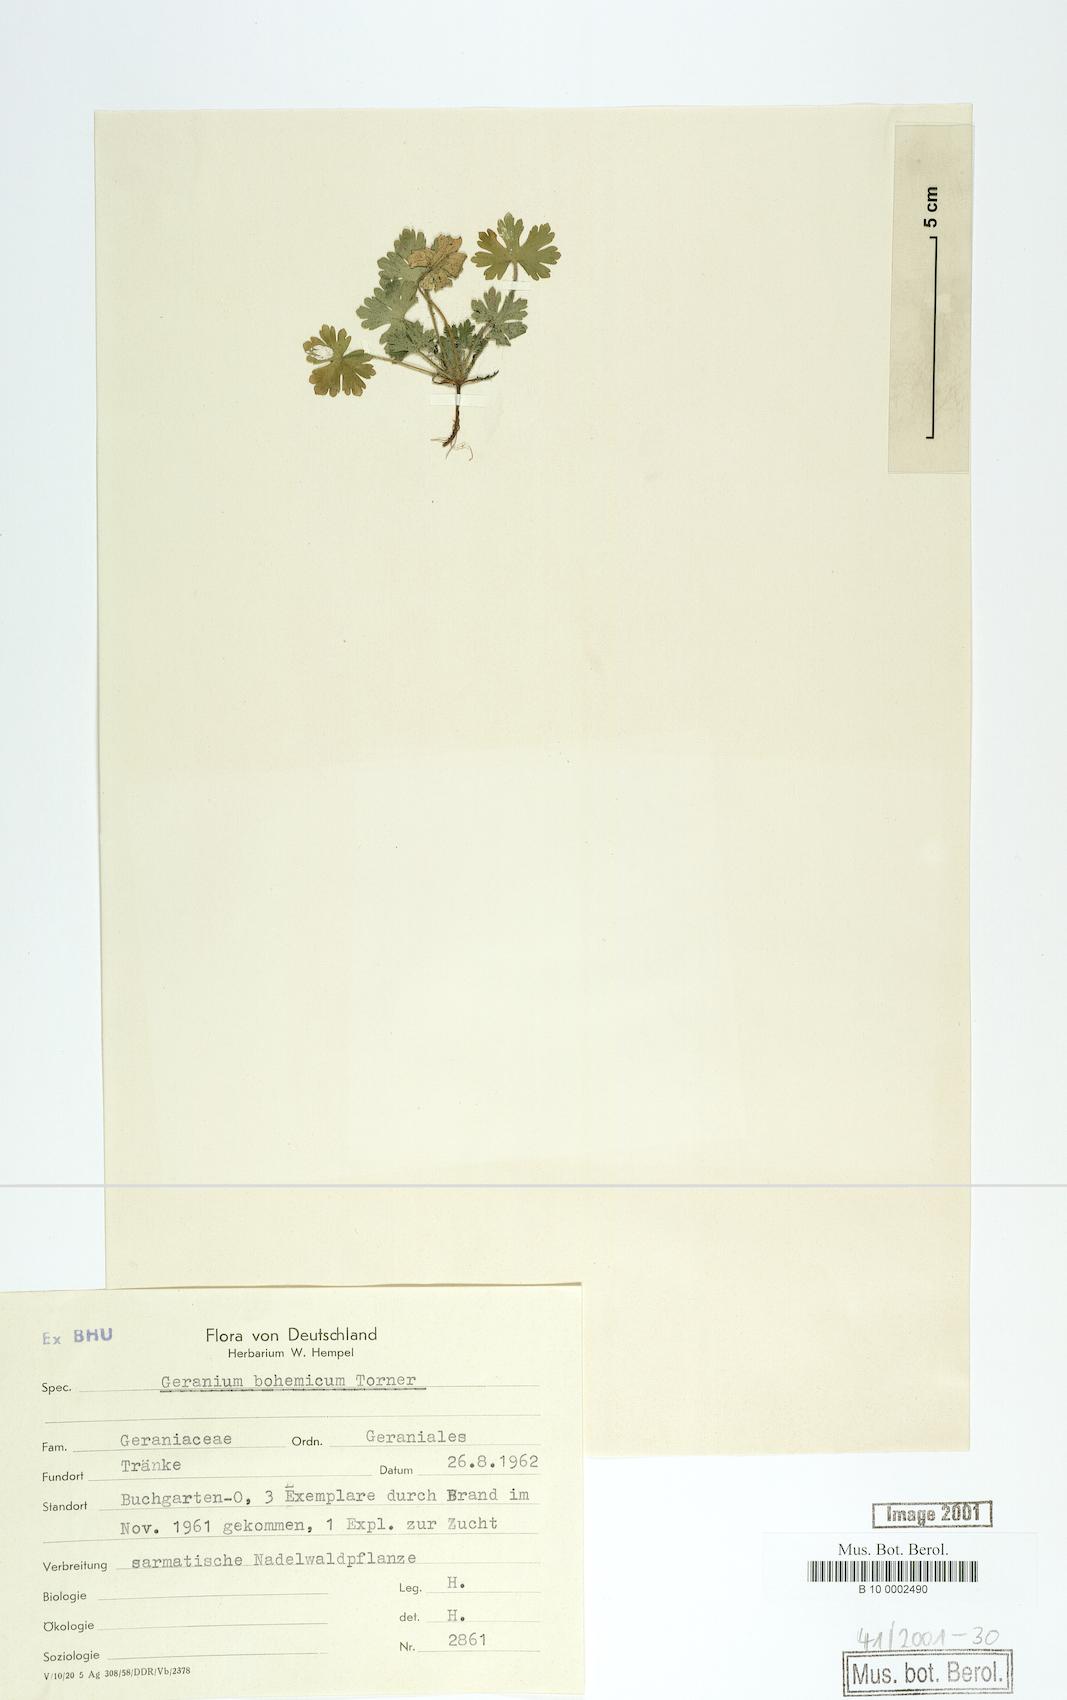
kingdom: Plantae
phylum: Tracheophyta
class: Magnoliopsida
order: Geraniales
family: Geraniaceae
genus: Geranium
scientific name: Geranium bohemicum
